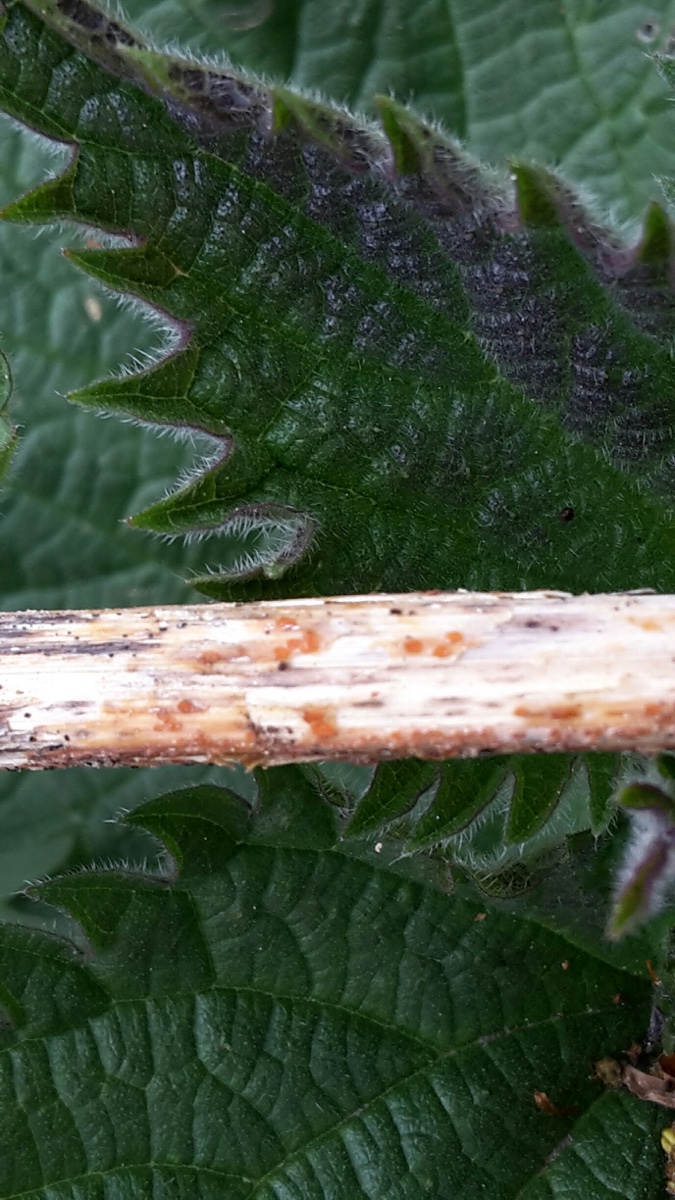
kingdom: Fungi
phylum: Ascomycota
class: Leotiomycetes
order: Helotiales
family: Calloriaceae
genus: Calloria
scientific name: Calloria urticae
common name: nælde-orangeskive
